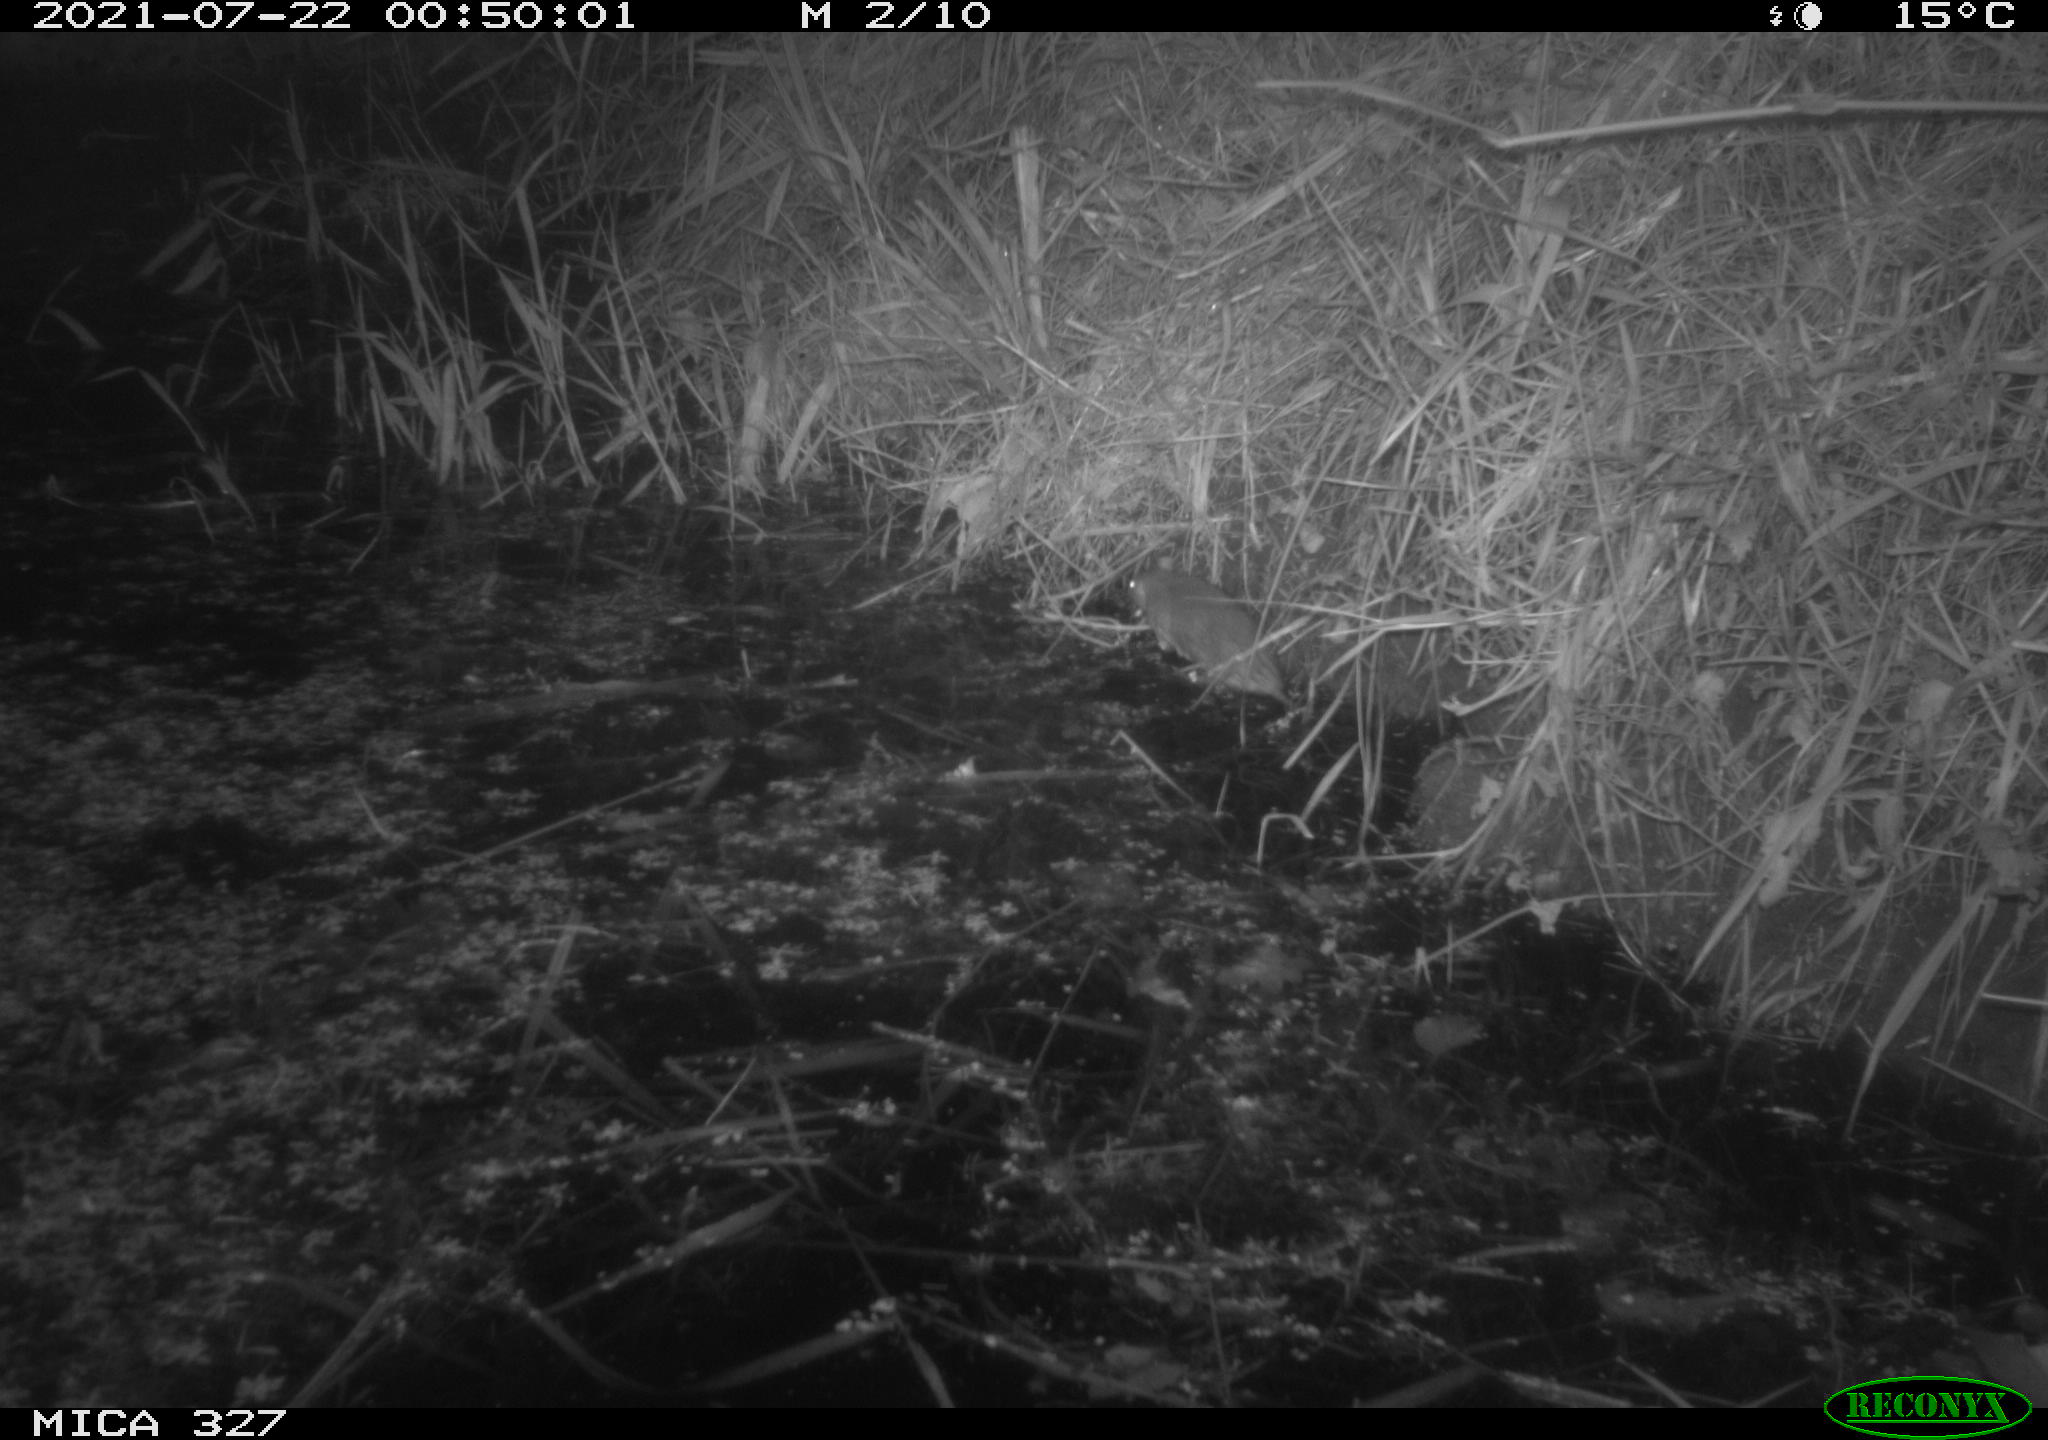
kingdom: Animalia
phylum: Chordata
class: Mammalia
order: Rodentia
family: Muridae
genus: Rattus
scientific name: Rattus norvegicus
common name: Brown rat
